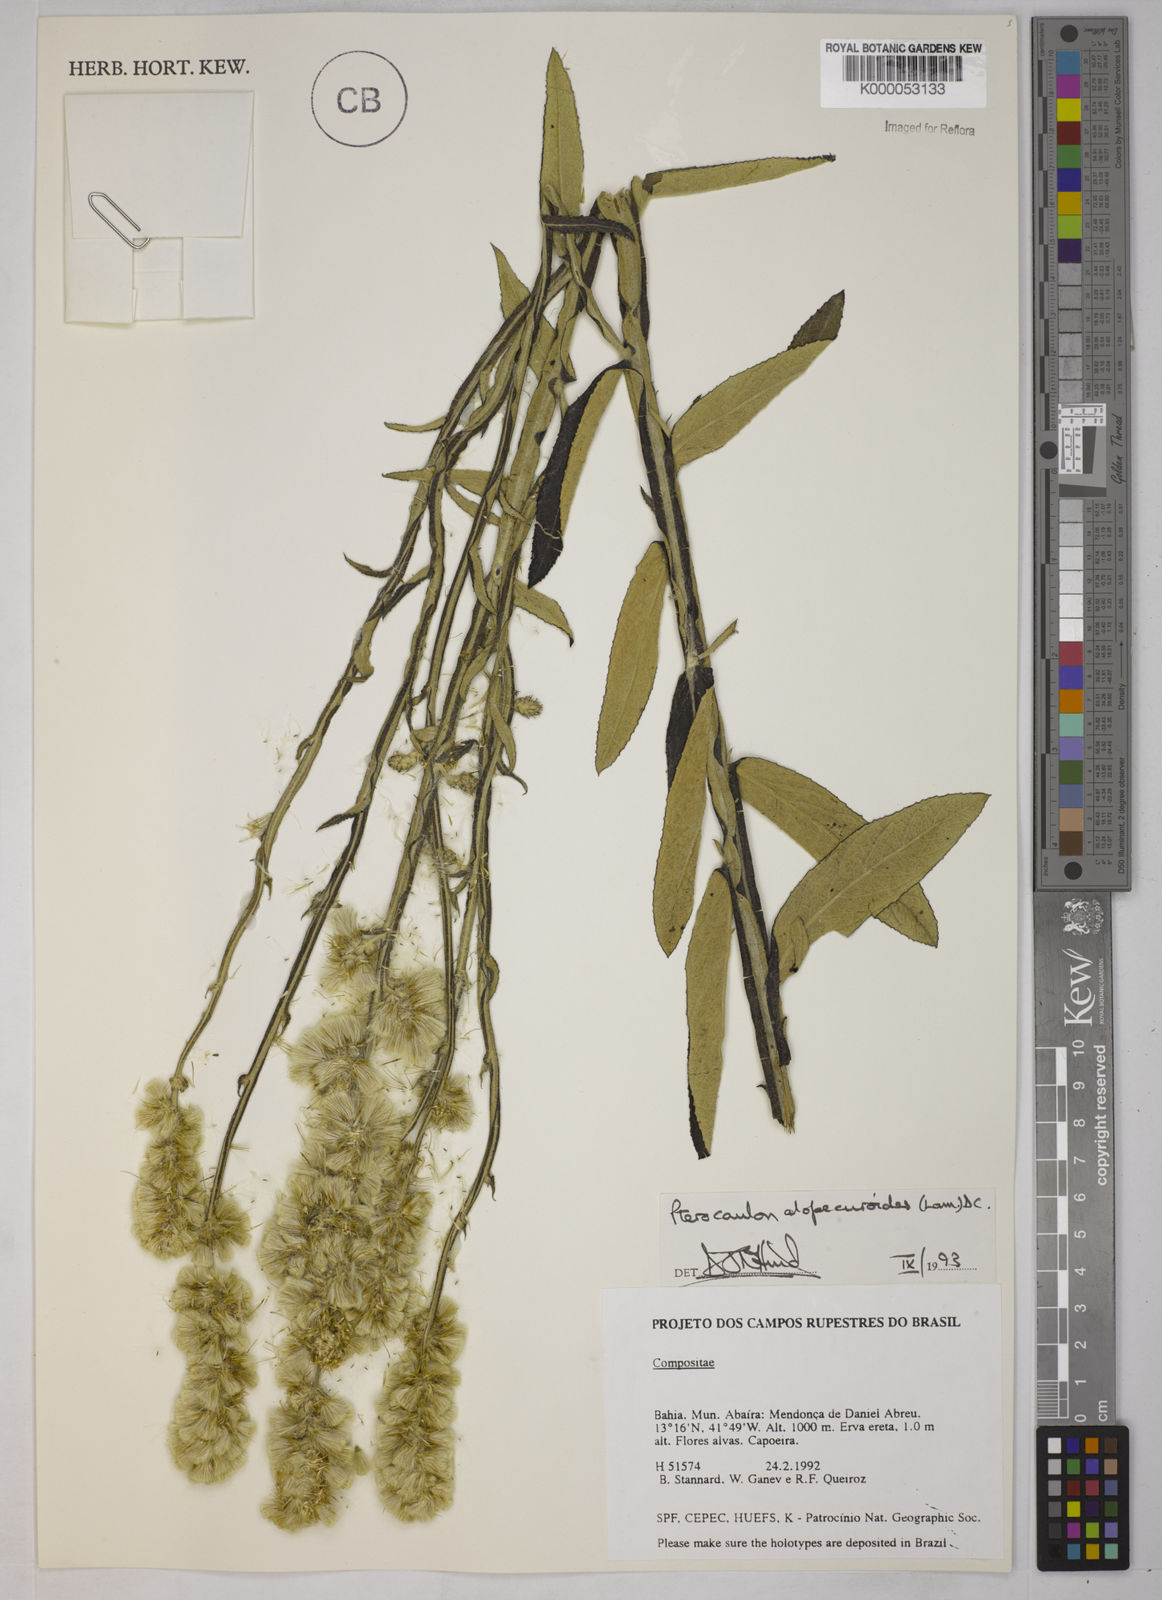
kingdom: Plantae
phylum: Tracheophyta
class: Magnoliopsida
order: Asterales
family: Asteraceae
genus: Pterocaulon
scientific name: Pterocaulon alopecuroides
